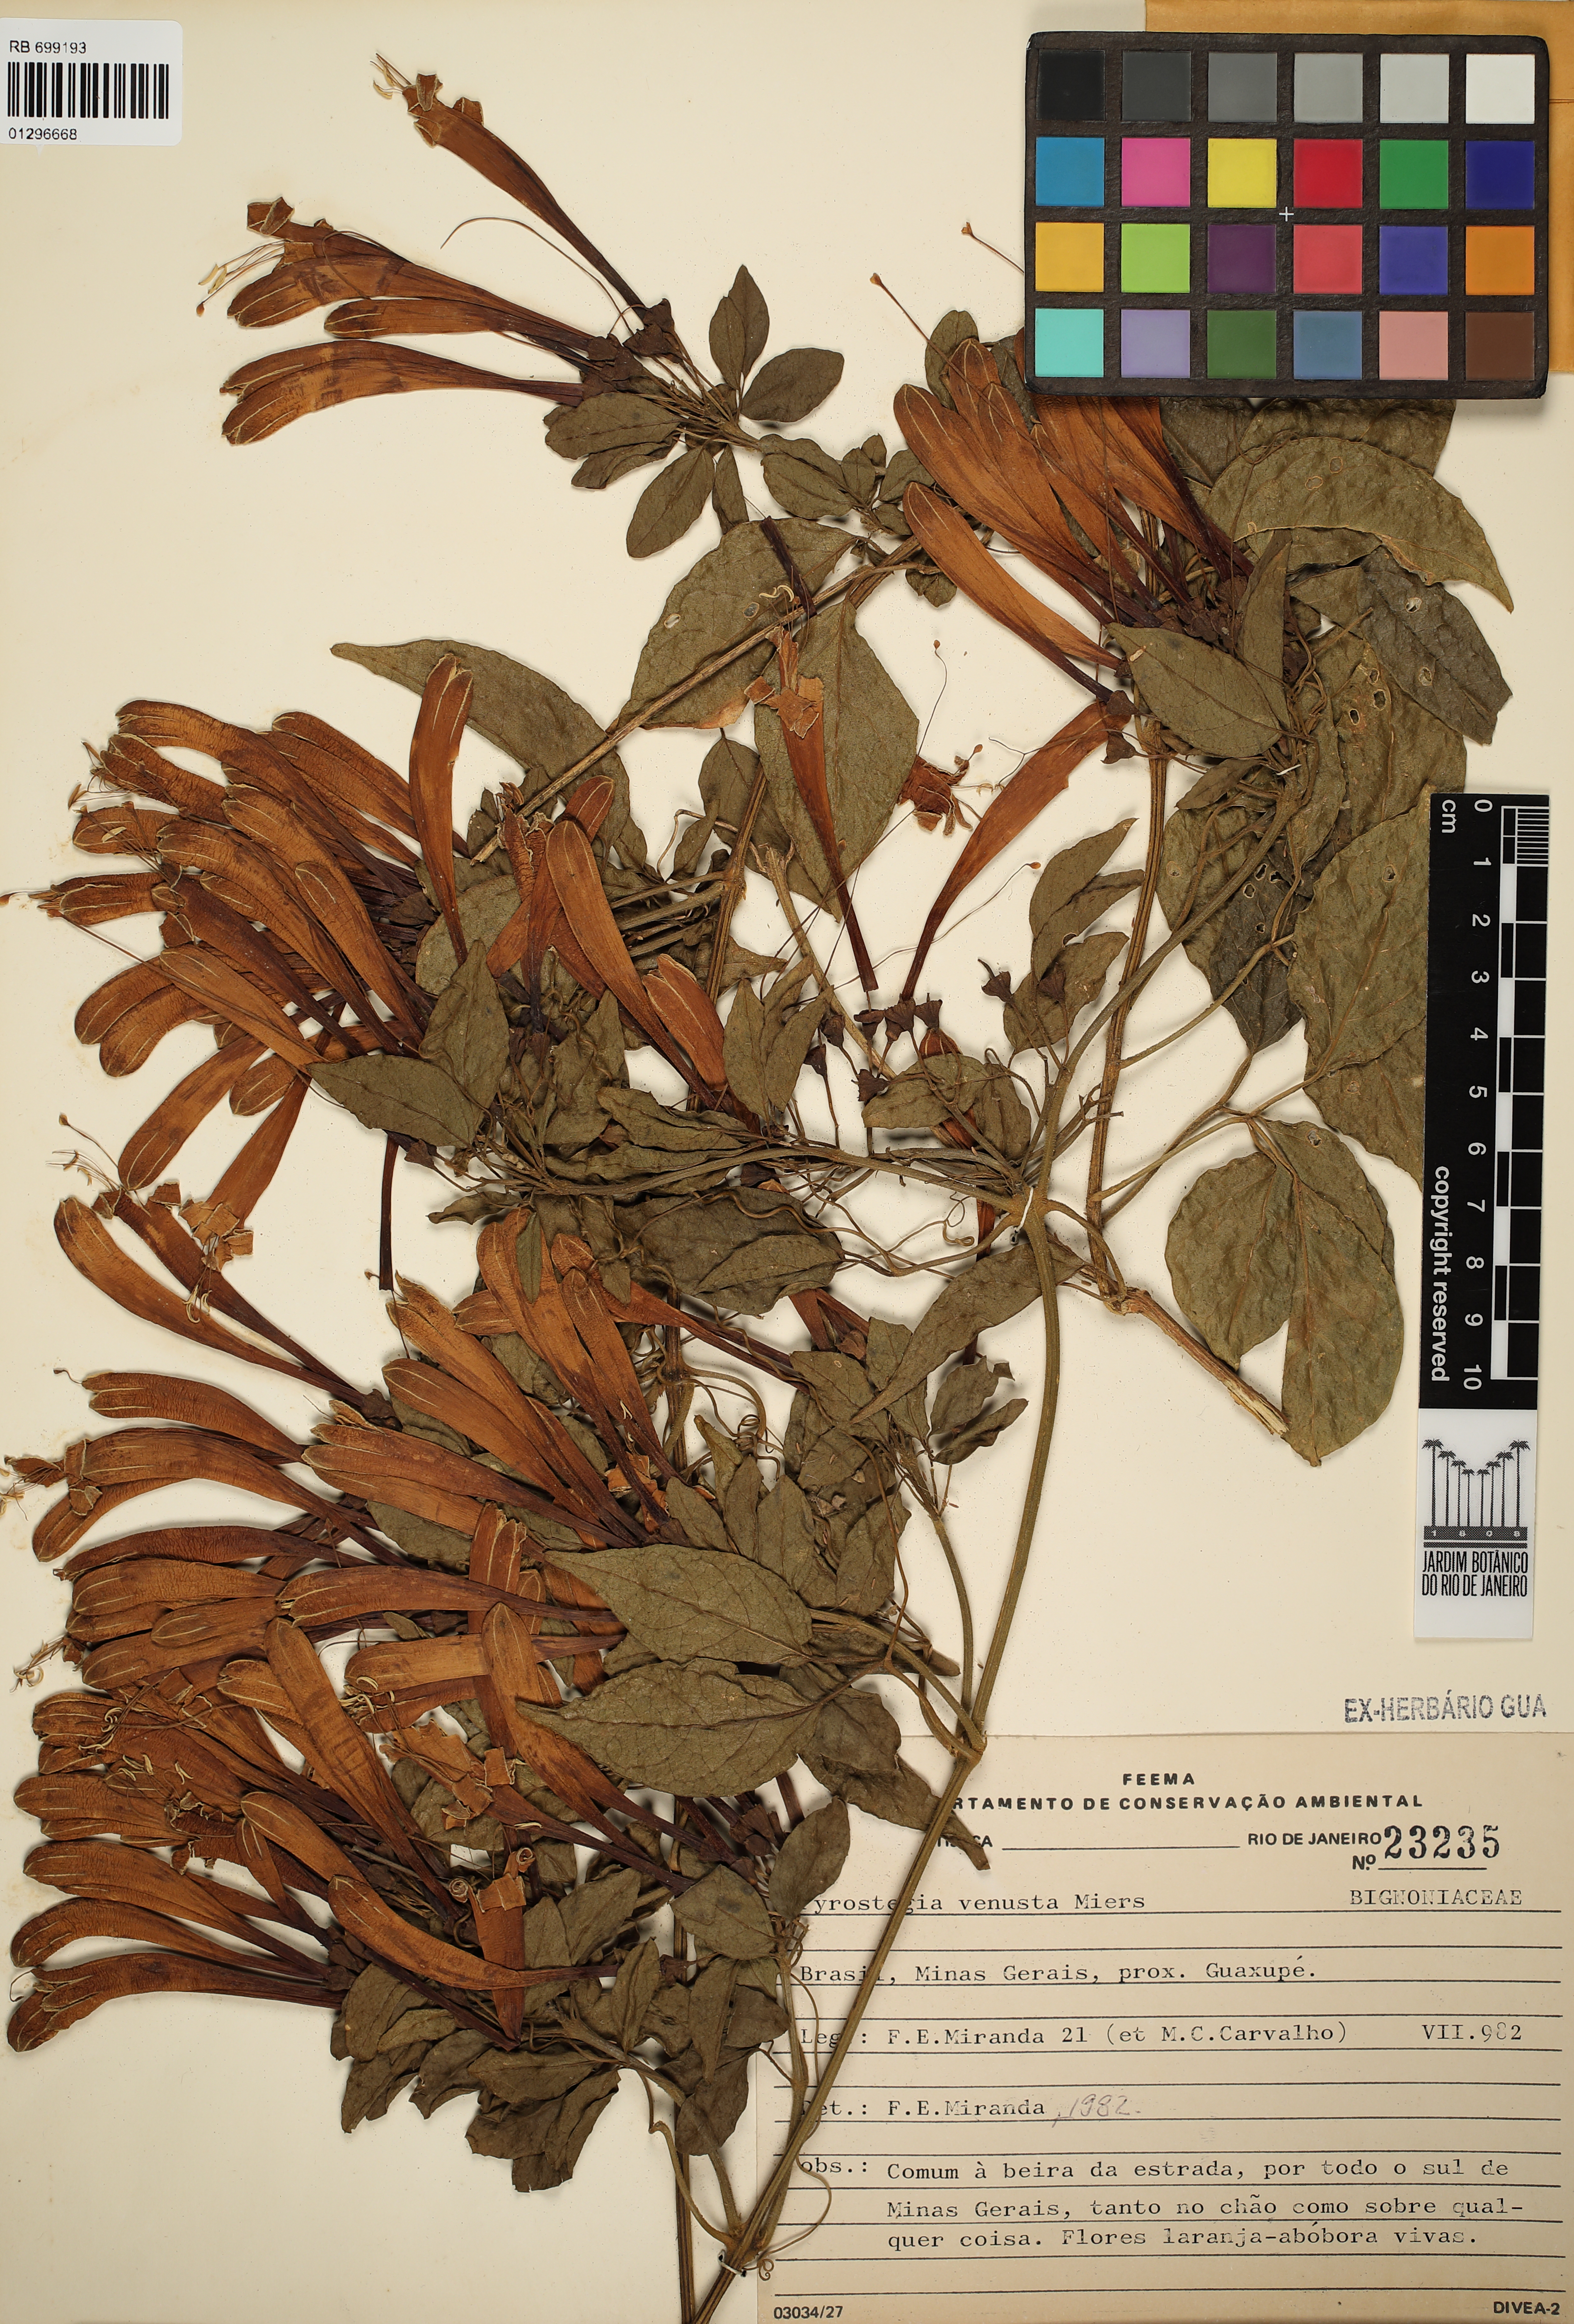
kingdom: Plantae
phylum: Tracheophyta
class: Magnoliopsida
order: Lamiales
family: Bignoniaceae
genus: Pyrostegia
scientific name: Pyrostegia venusta
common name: Flamevine
